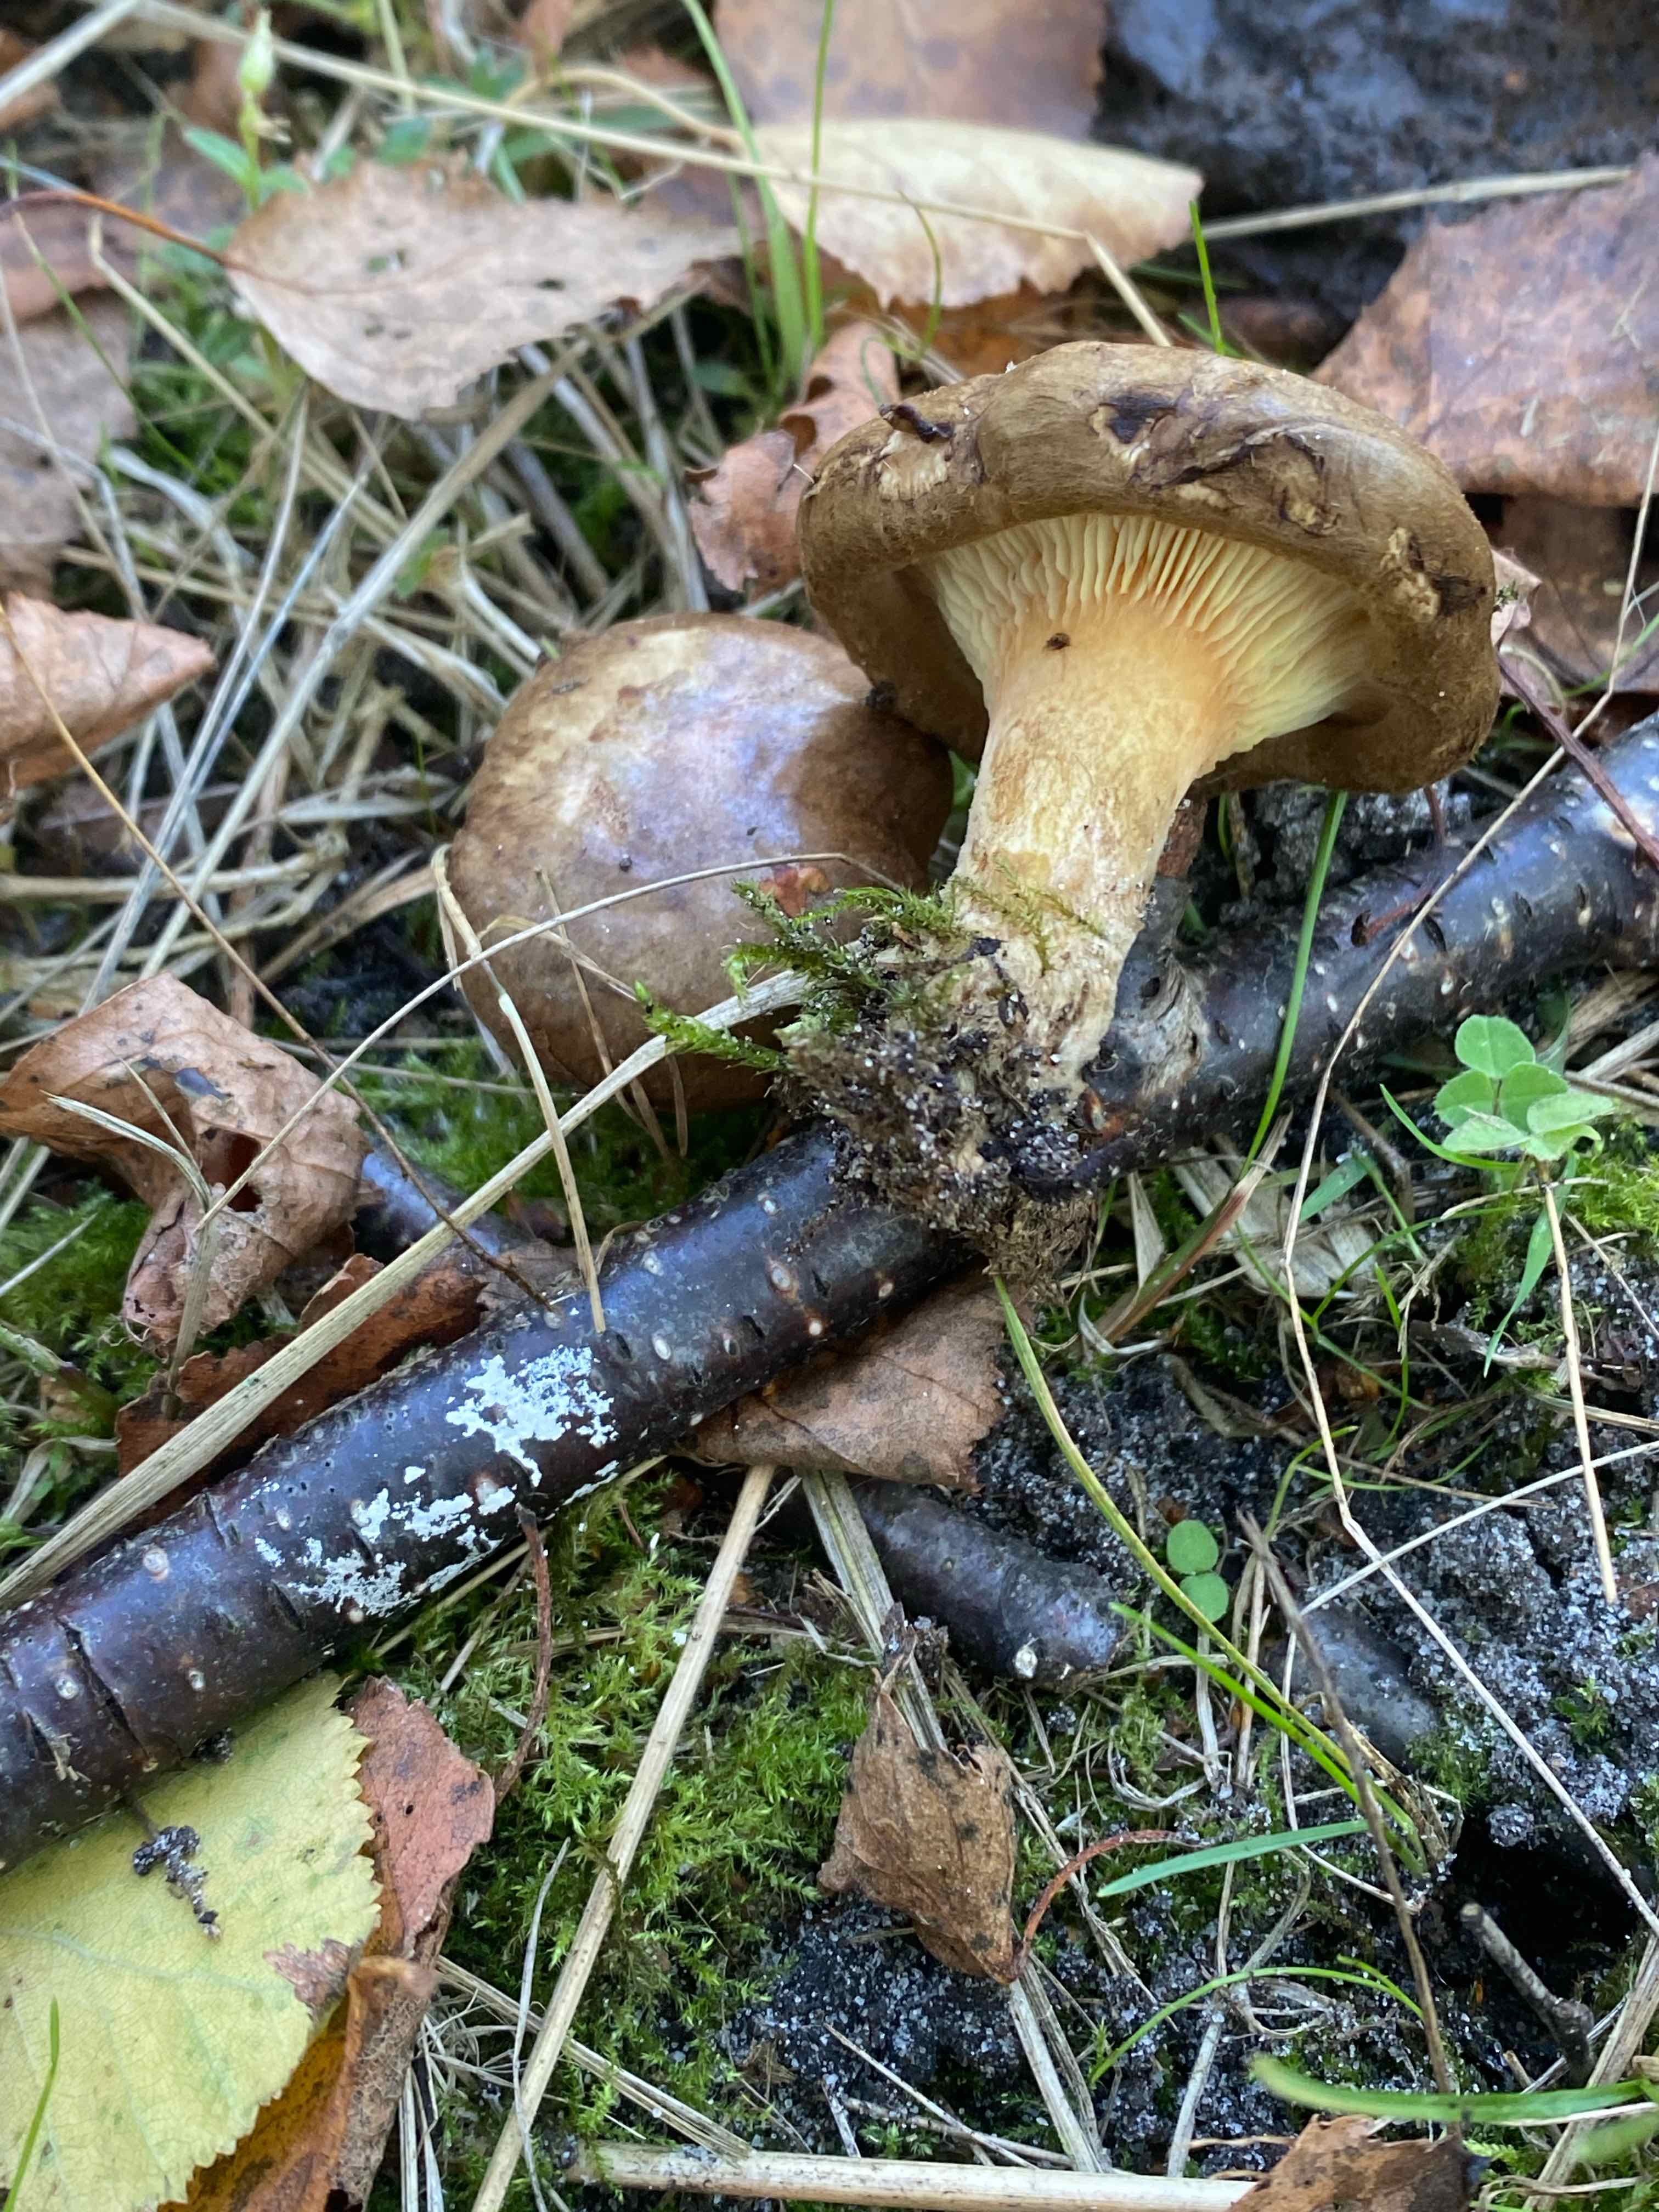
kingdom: Fungi
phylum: Basidiomycota
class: Agaricomycetes
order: Boletales
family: Paxillaceae
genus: Paxillus
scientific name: Paxillus involutus
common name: almindelig netbladhat
